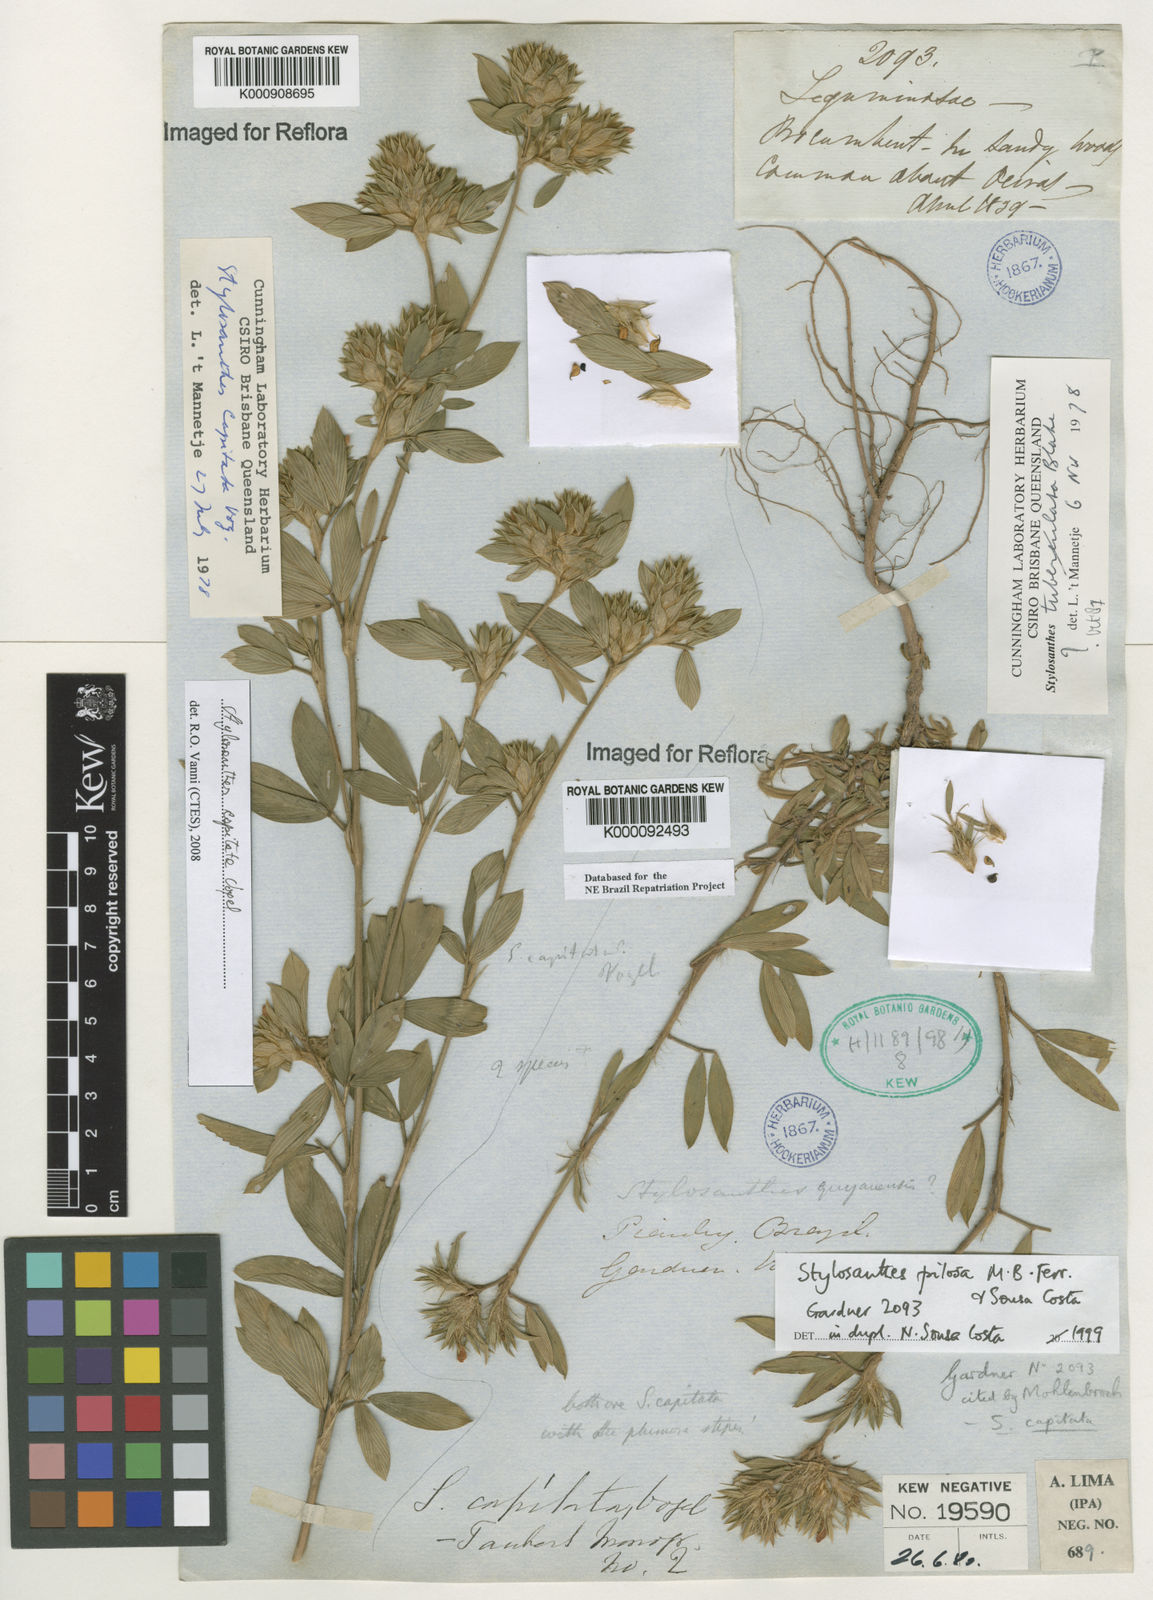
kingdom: Plantae
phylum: Tracheophyta
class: Magnoliopsida
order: Fabales
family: Fabaceae
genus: Stylosanthes
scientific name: Stylosanthes capitata
